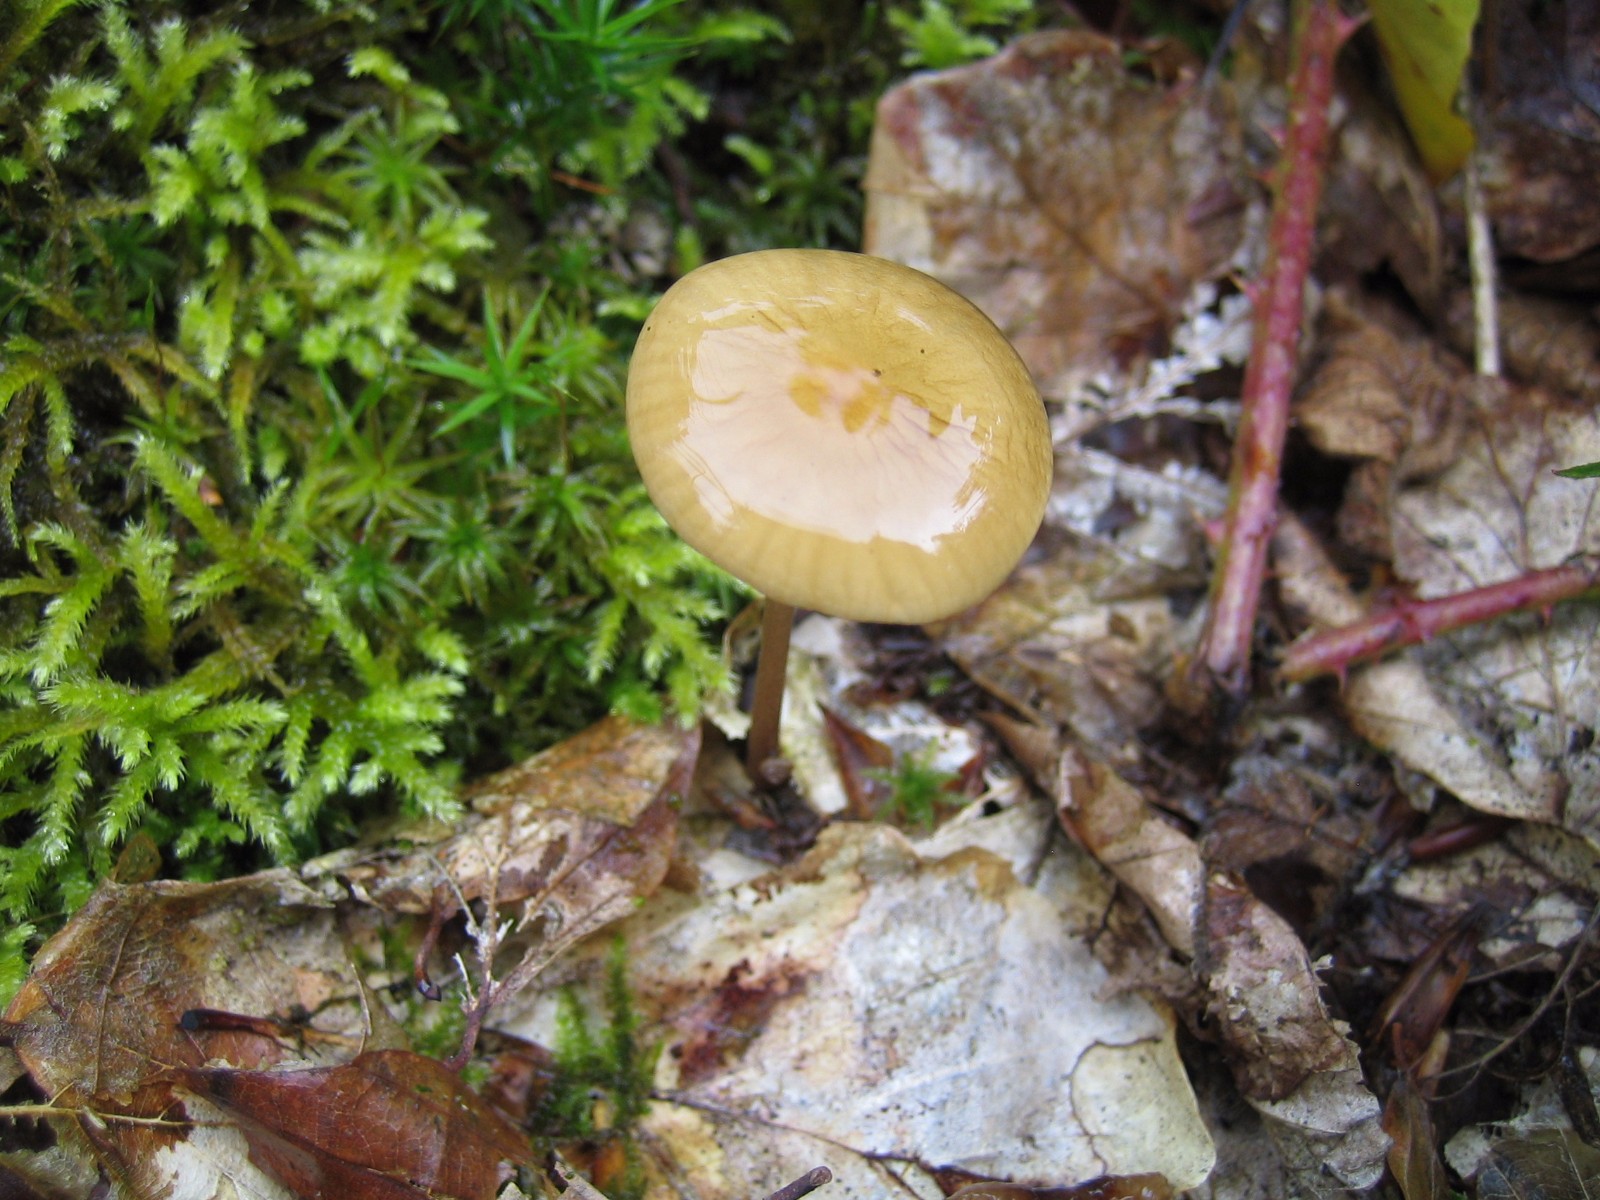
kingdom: Fungi
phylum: Basidiomycota
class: Agaricomycetes
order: Agaricales
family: Physalacriaceae
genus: Hymenopellis
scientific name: Hymenopellis radicata
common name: almindelig pælerodshat
